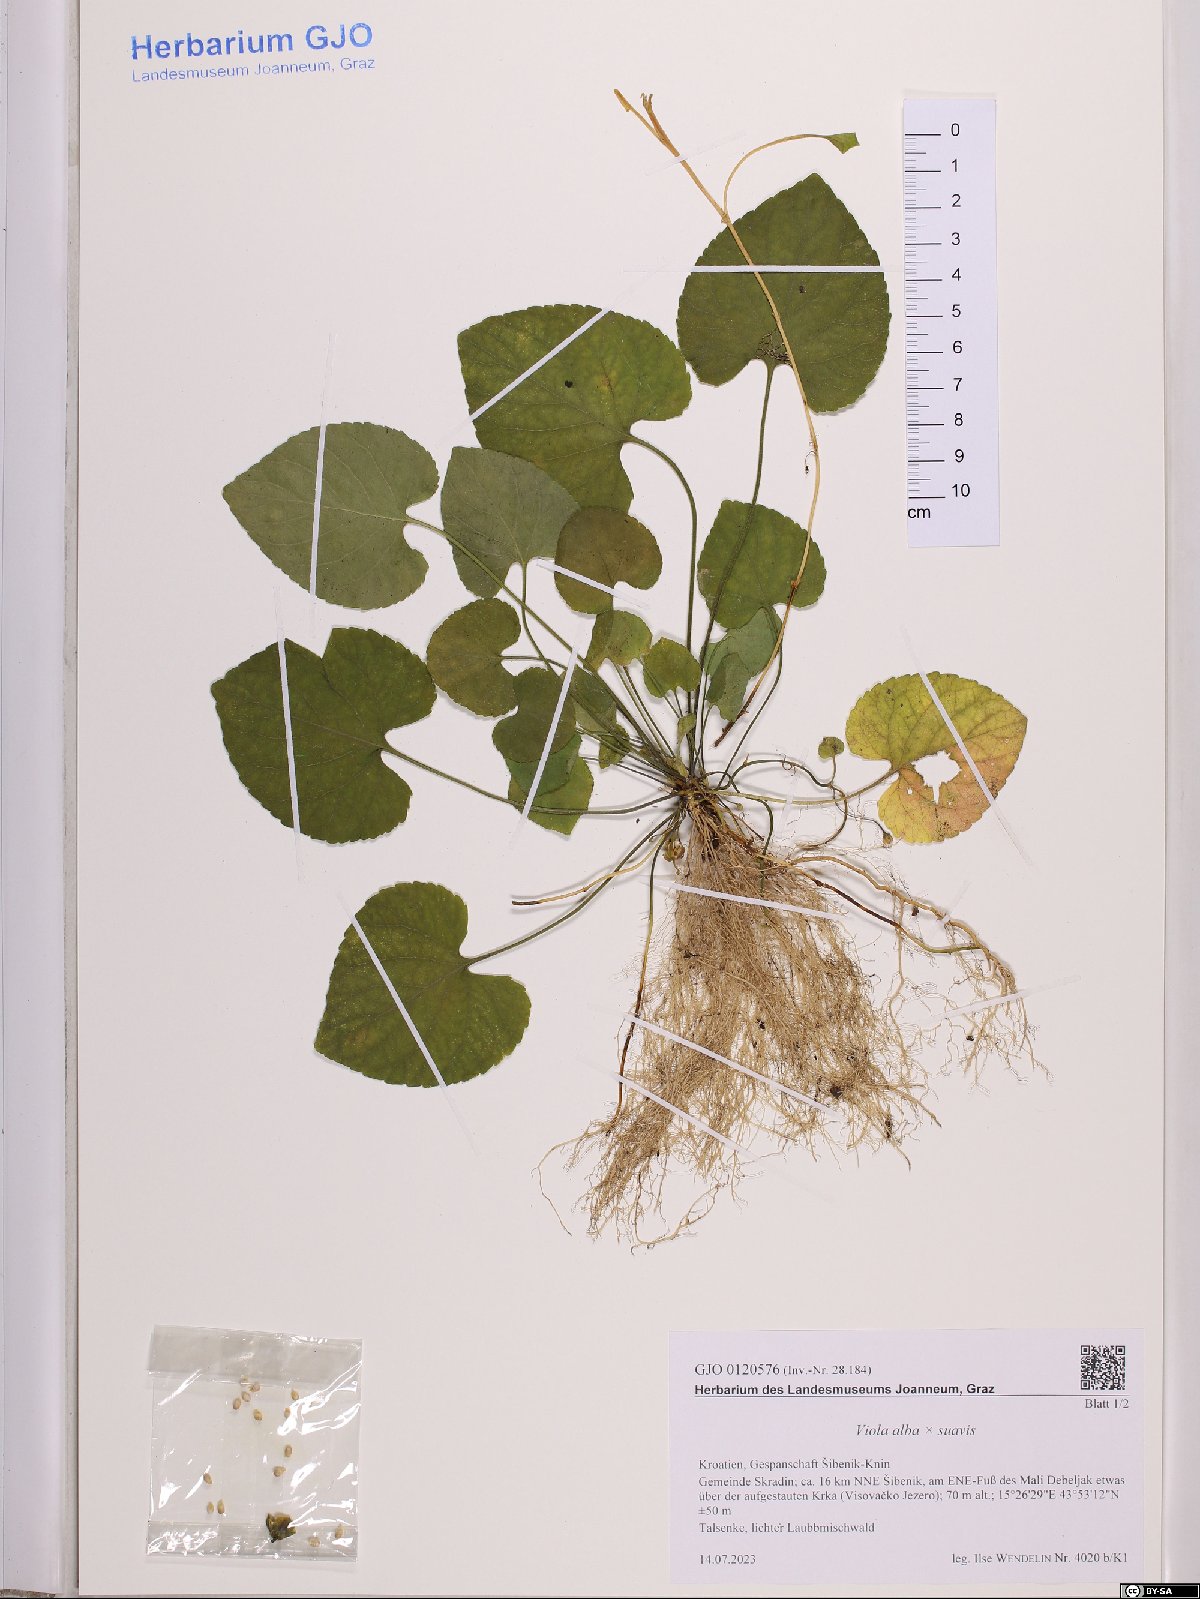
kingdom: Plantae
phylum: Tracheophyta
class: Magnoliopsida
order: Malpighiales
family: Violaceae
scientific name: Violaceae
